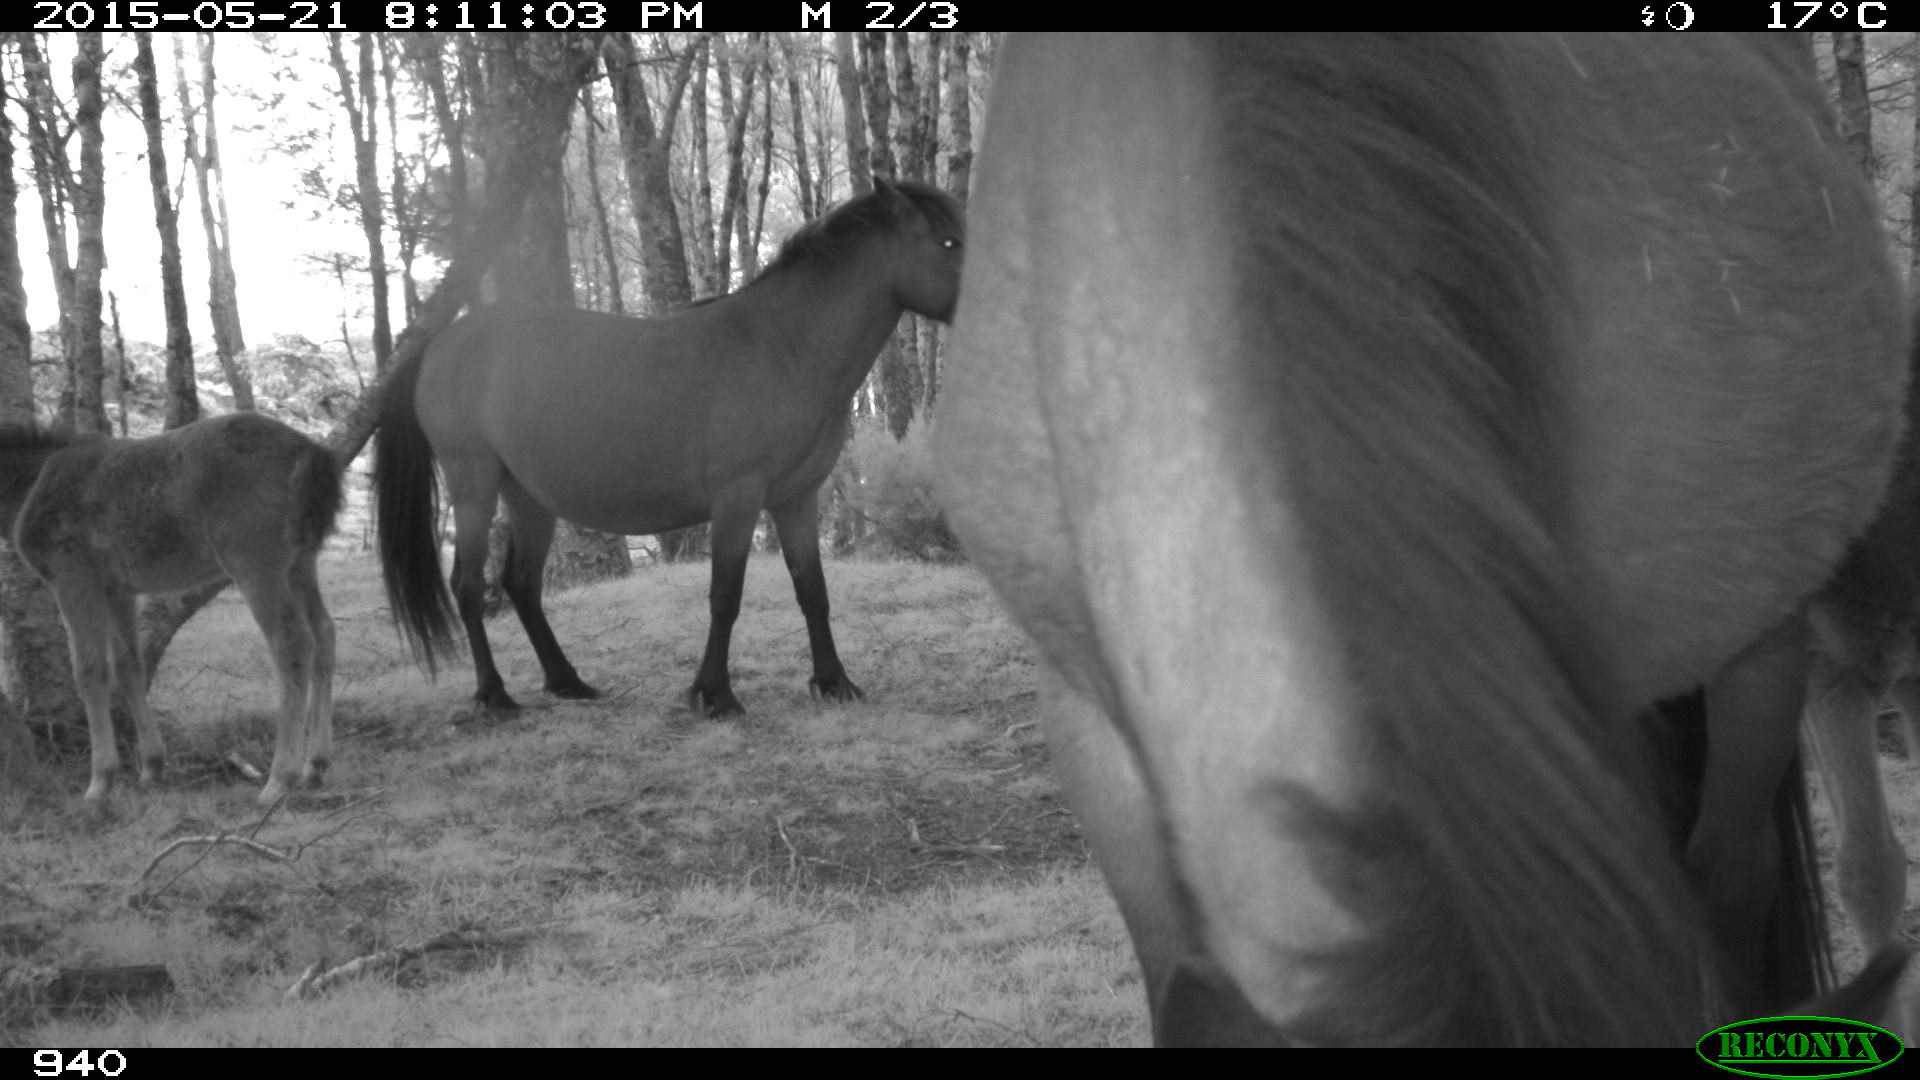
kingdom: Animalia
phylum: Chordata
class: Mammalia
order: Perissodactyla
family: Equidae
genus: Equus
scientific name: Equus caballus
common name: Horse
